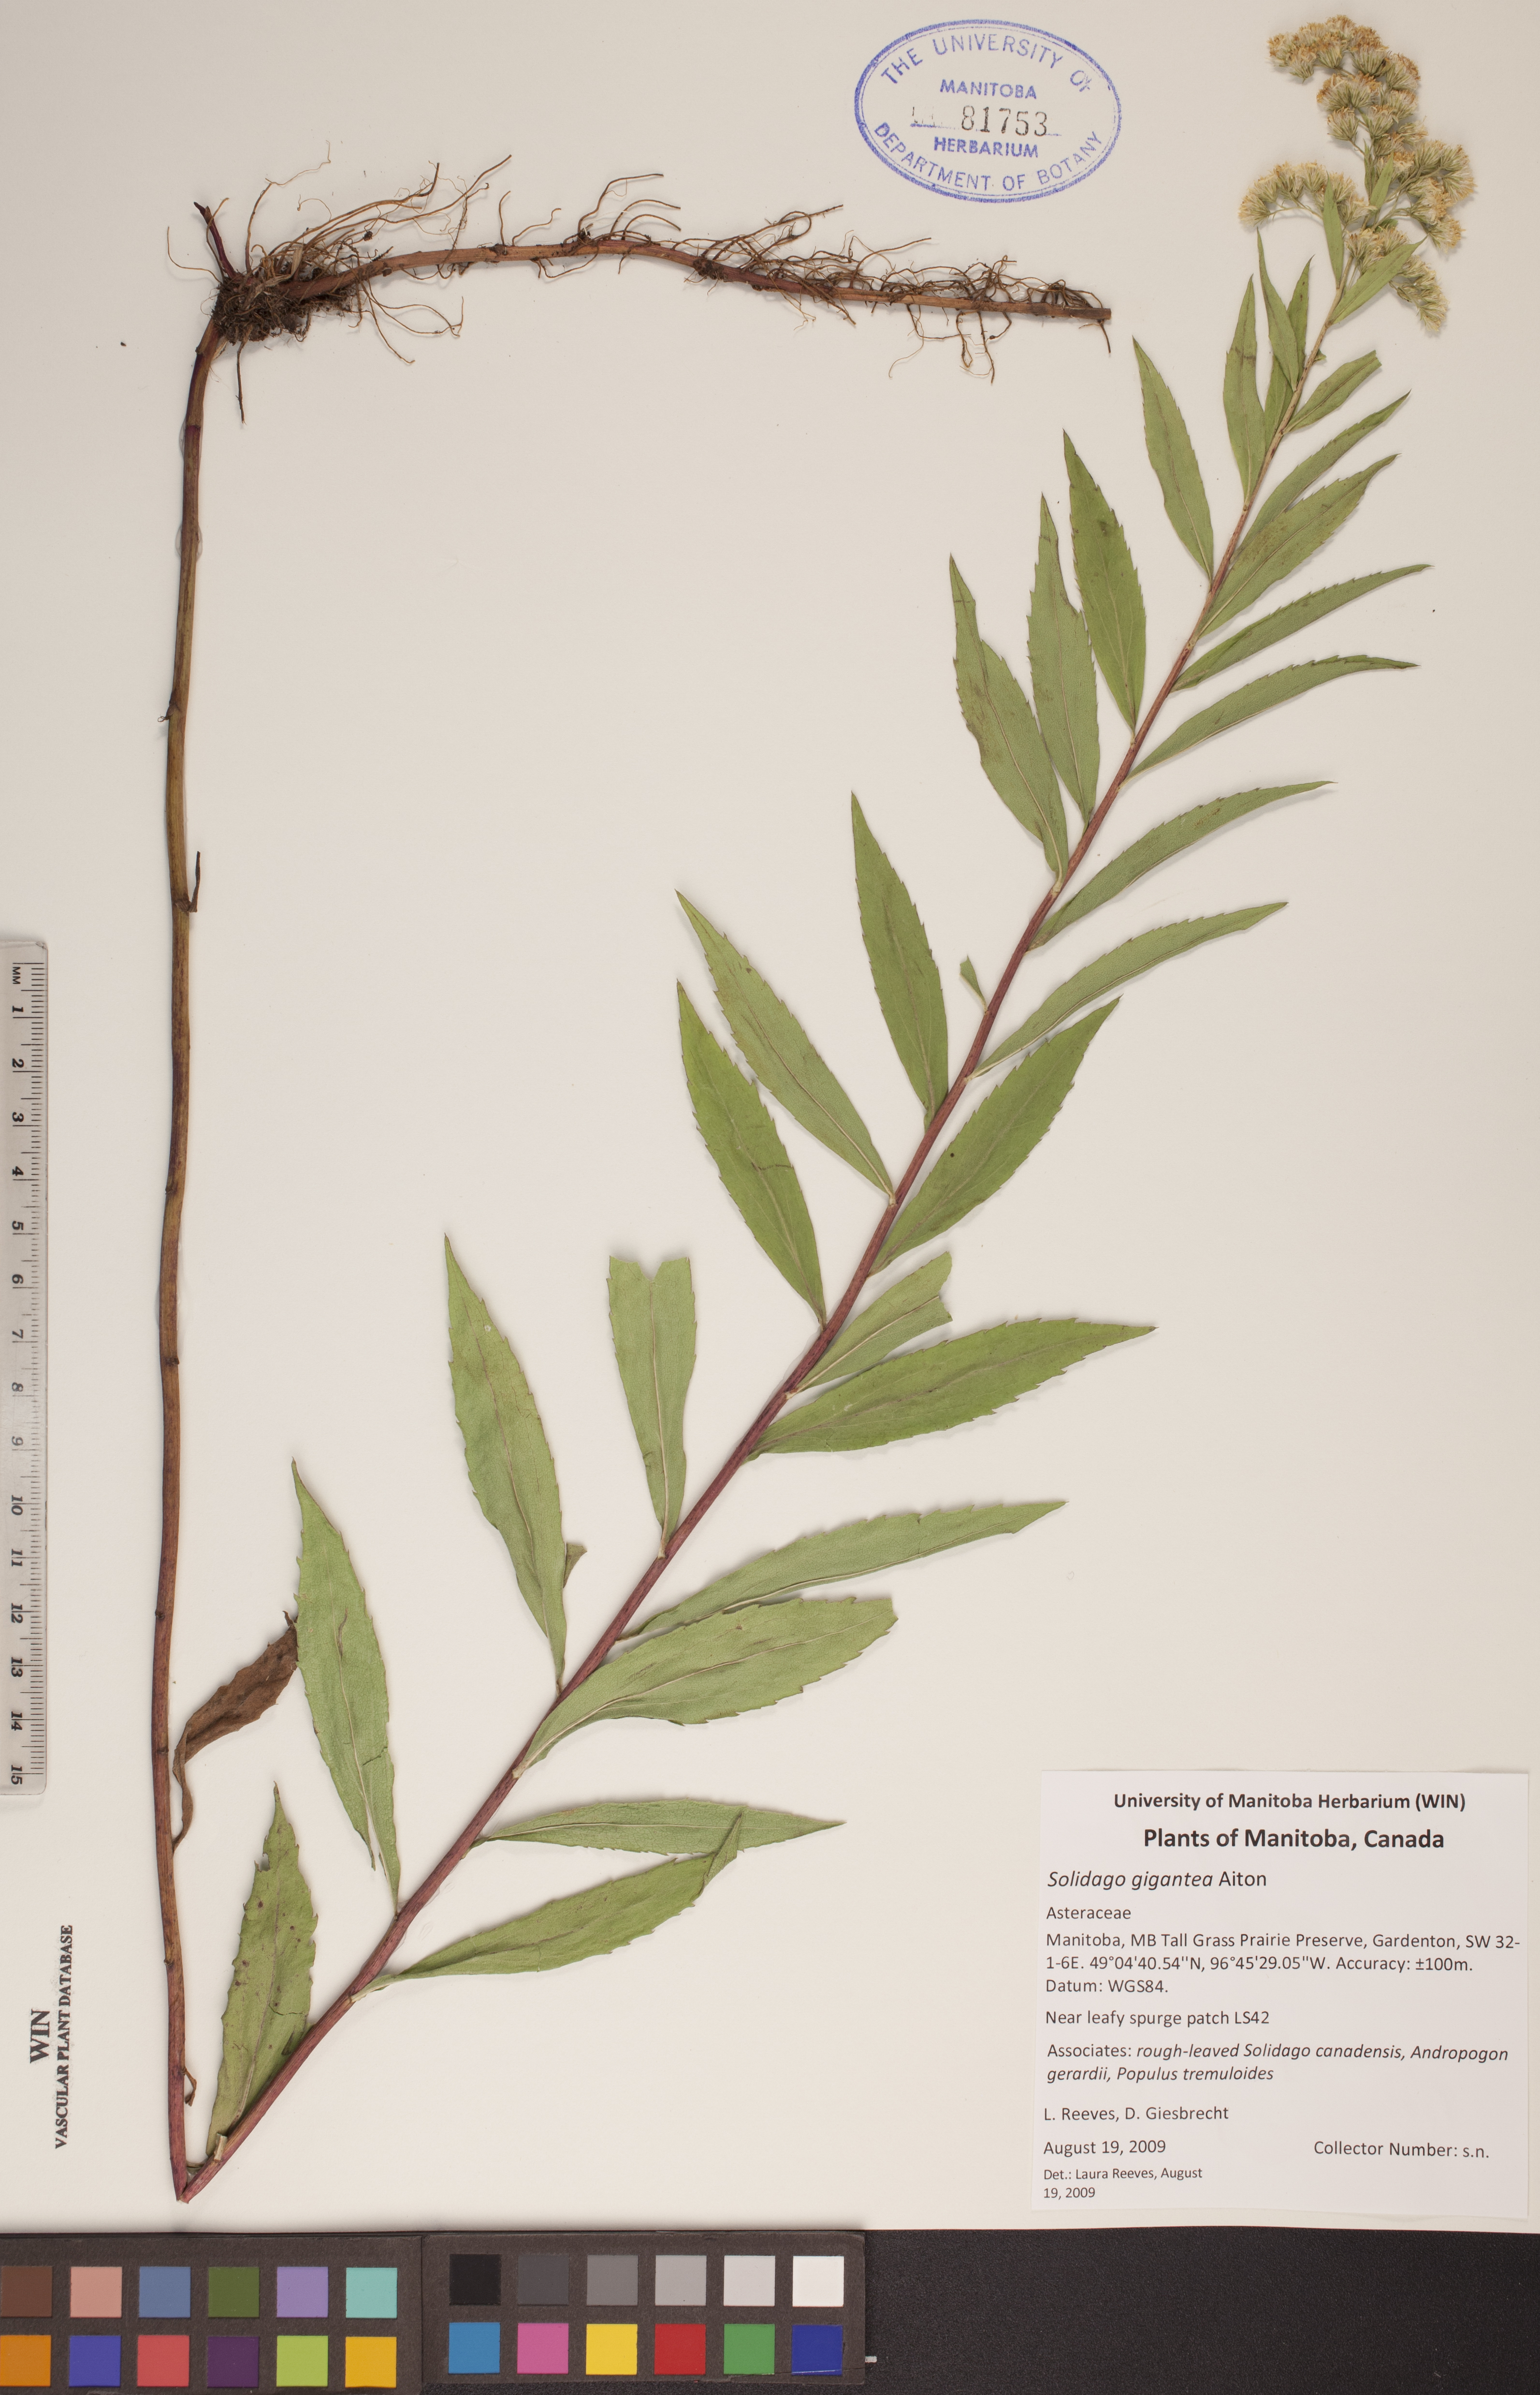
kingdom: Plantae
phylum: Tracheophyta
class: Magnoliopsida
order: Asterales
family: Asteraceae
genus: Solidago
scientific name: Solidago gigantea
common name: Giant goldenrod
